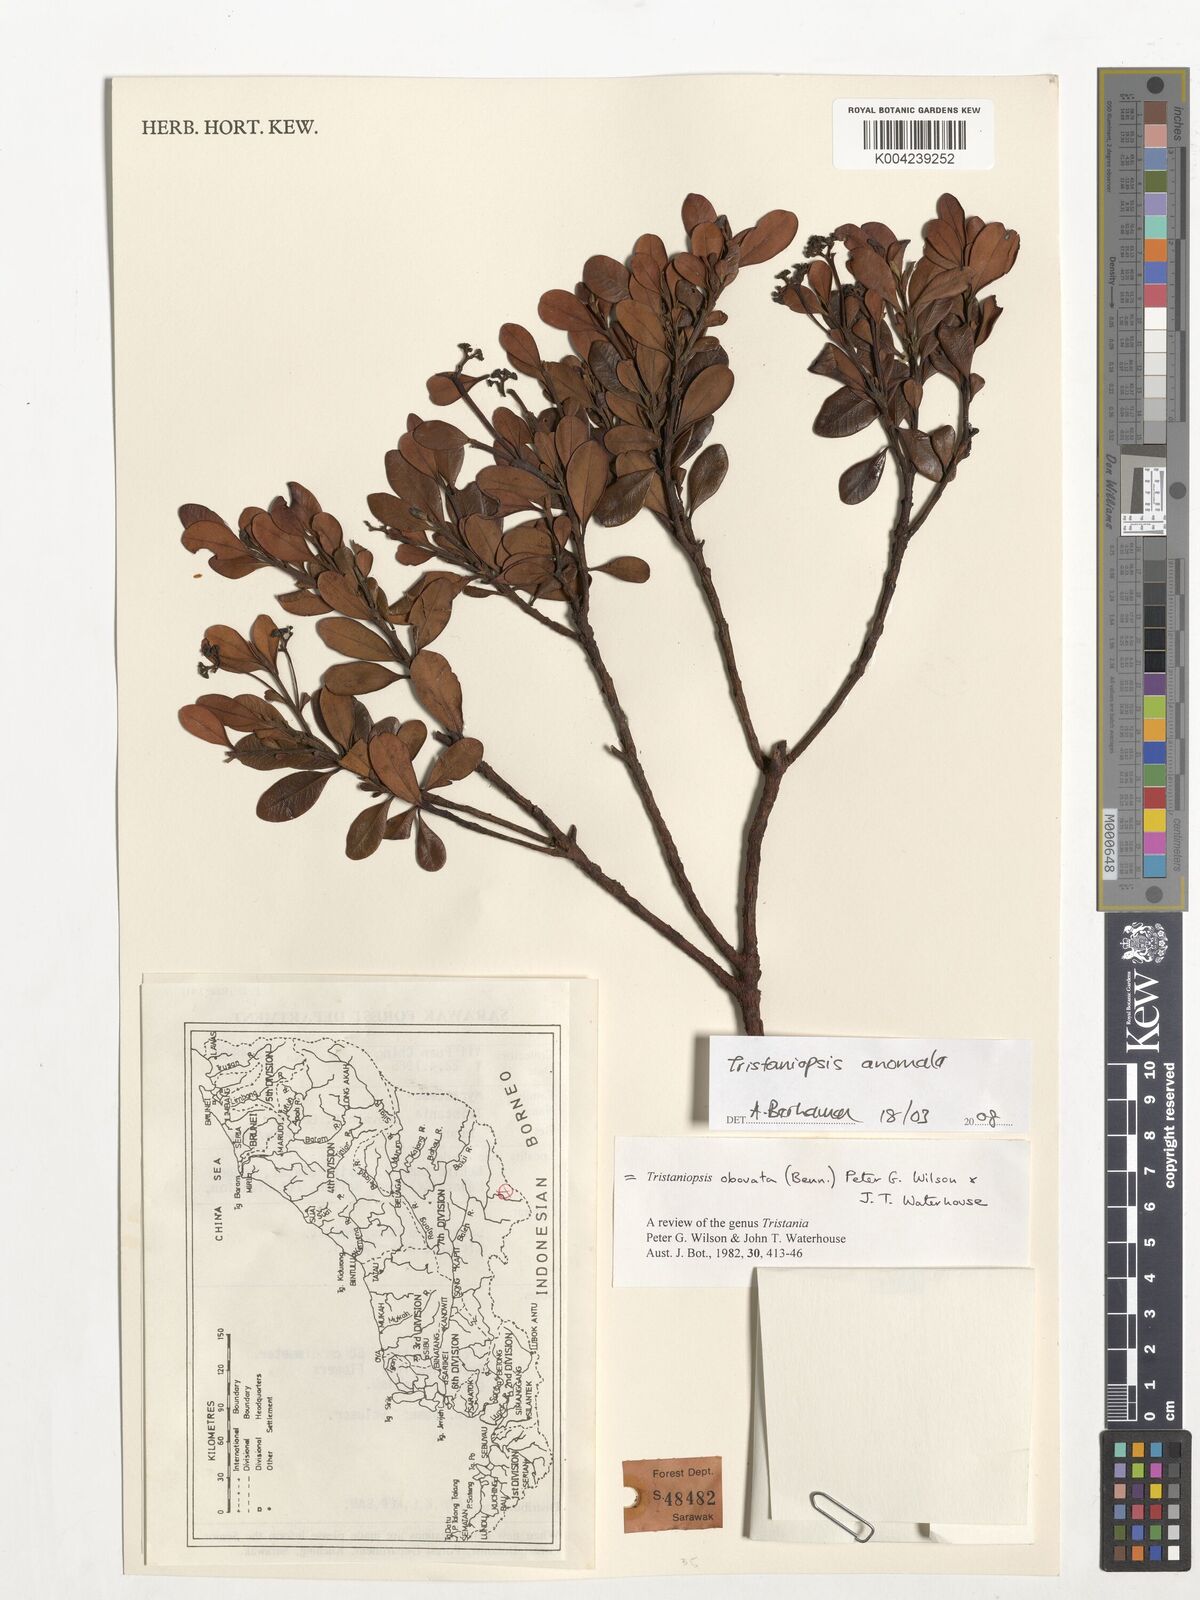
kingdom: Plantae
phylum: Tracheophyta
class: Magnoliopsida
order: Myrtales
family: Myrtaceae
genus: Tristaniopsis
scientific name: Tristaniopsis anomala
